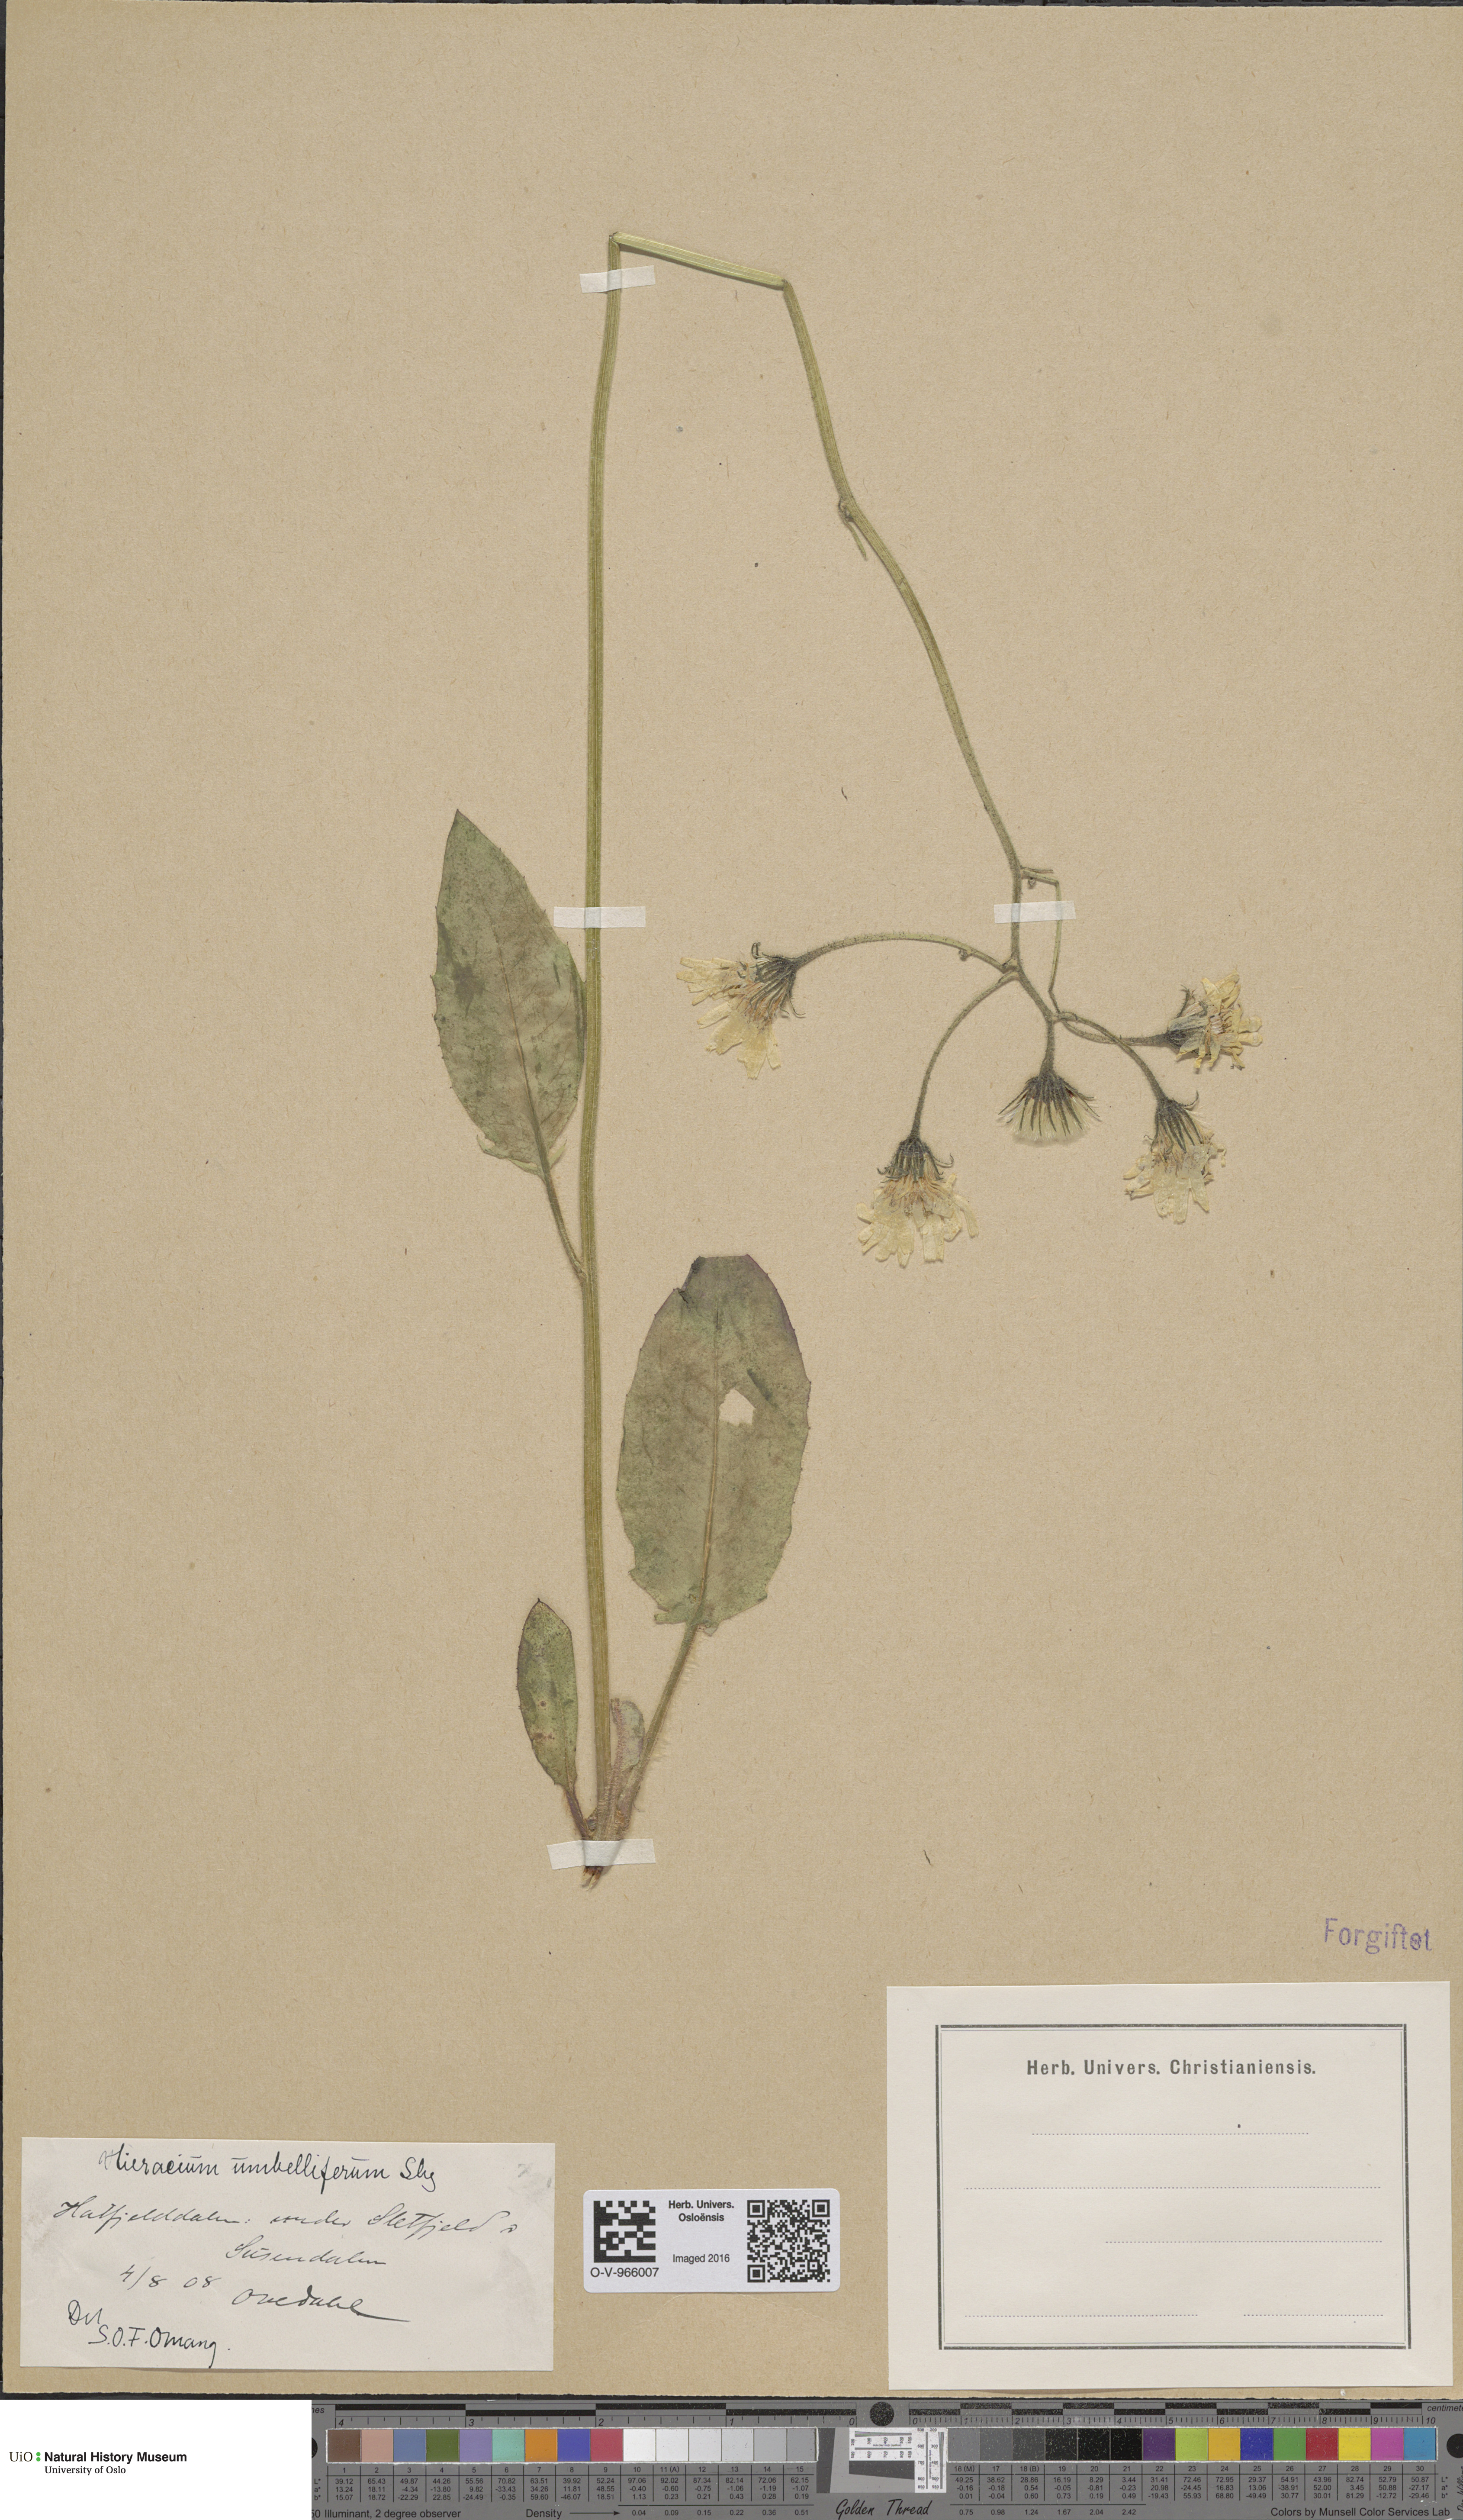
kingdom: Plantae
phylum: Tracheophyta
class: Magnoliopsida
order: Asterales
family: Asteraceae
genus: Hieracium
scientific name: Hieracium praenodatum
